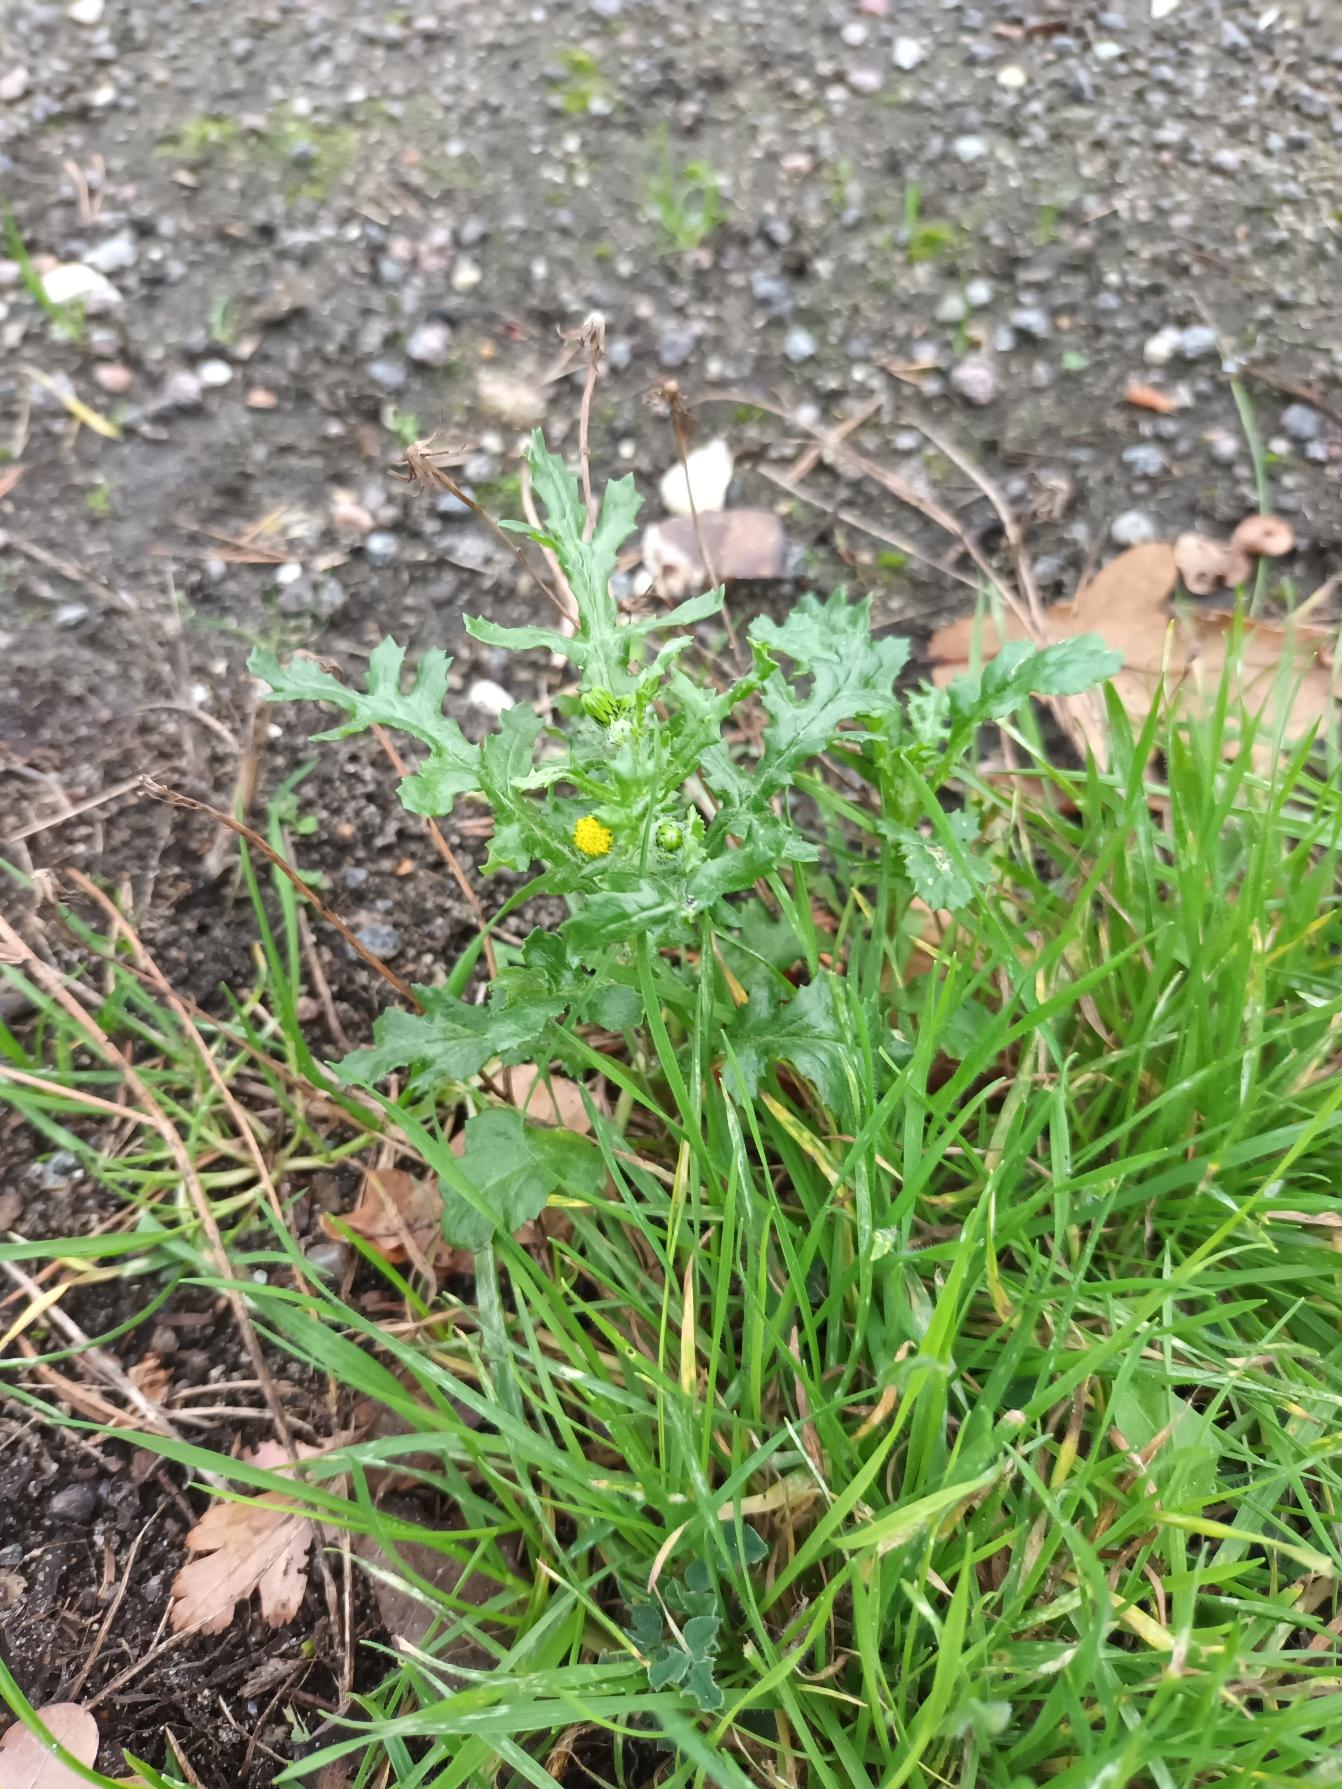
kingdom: Plantae
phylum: Tracheophyta
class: Magnoliopsida
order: Asterales
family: Asteraceae
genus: Senecio
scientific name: Senecio vulgaris
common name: Almindelig brandbæger
